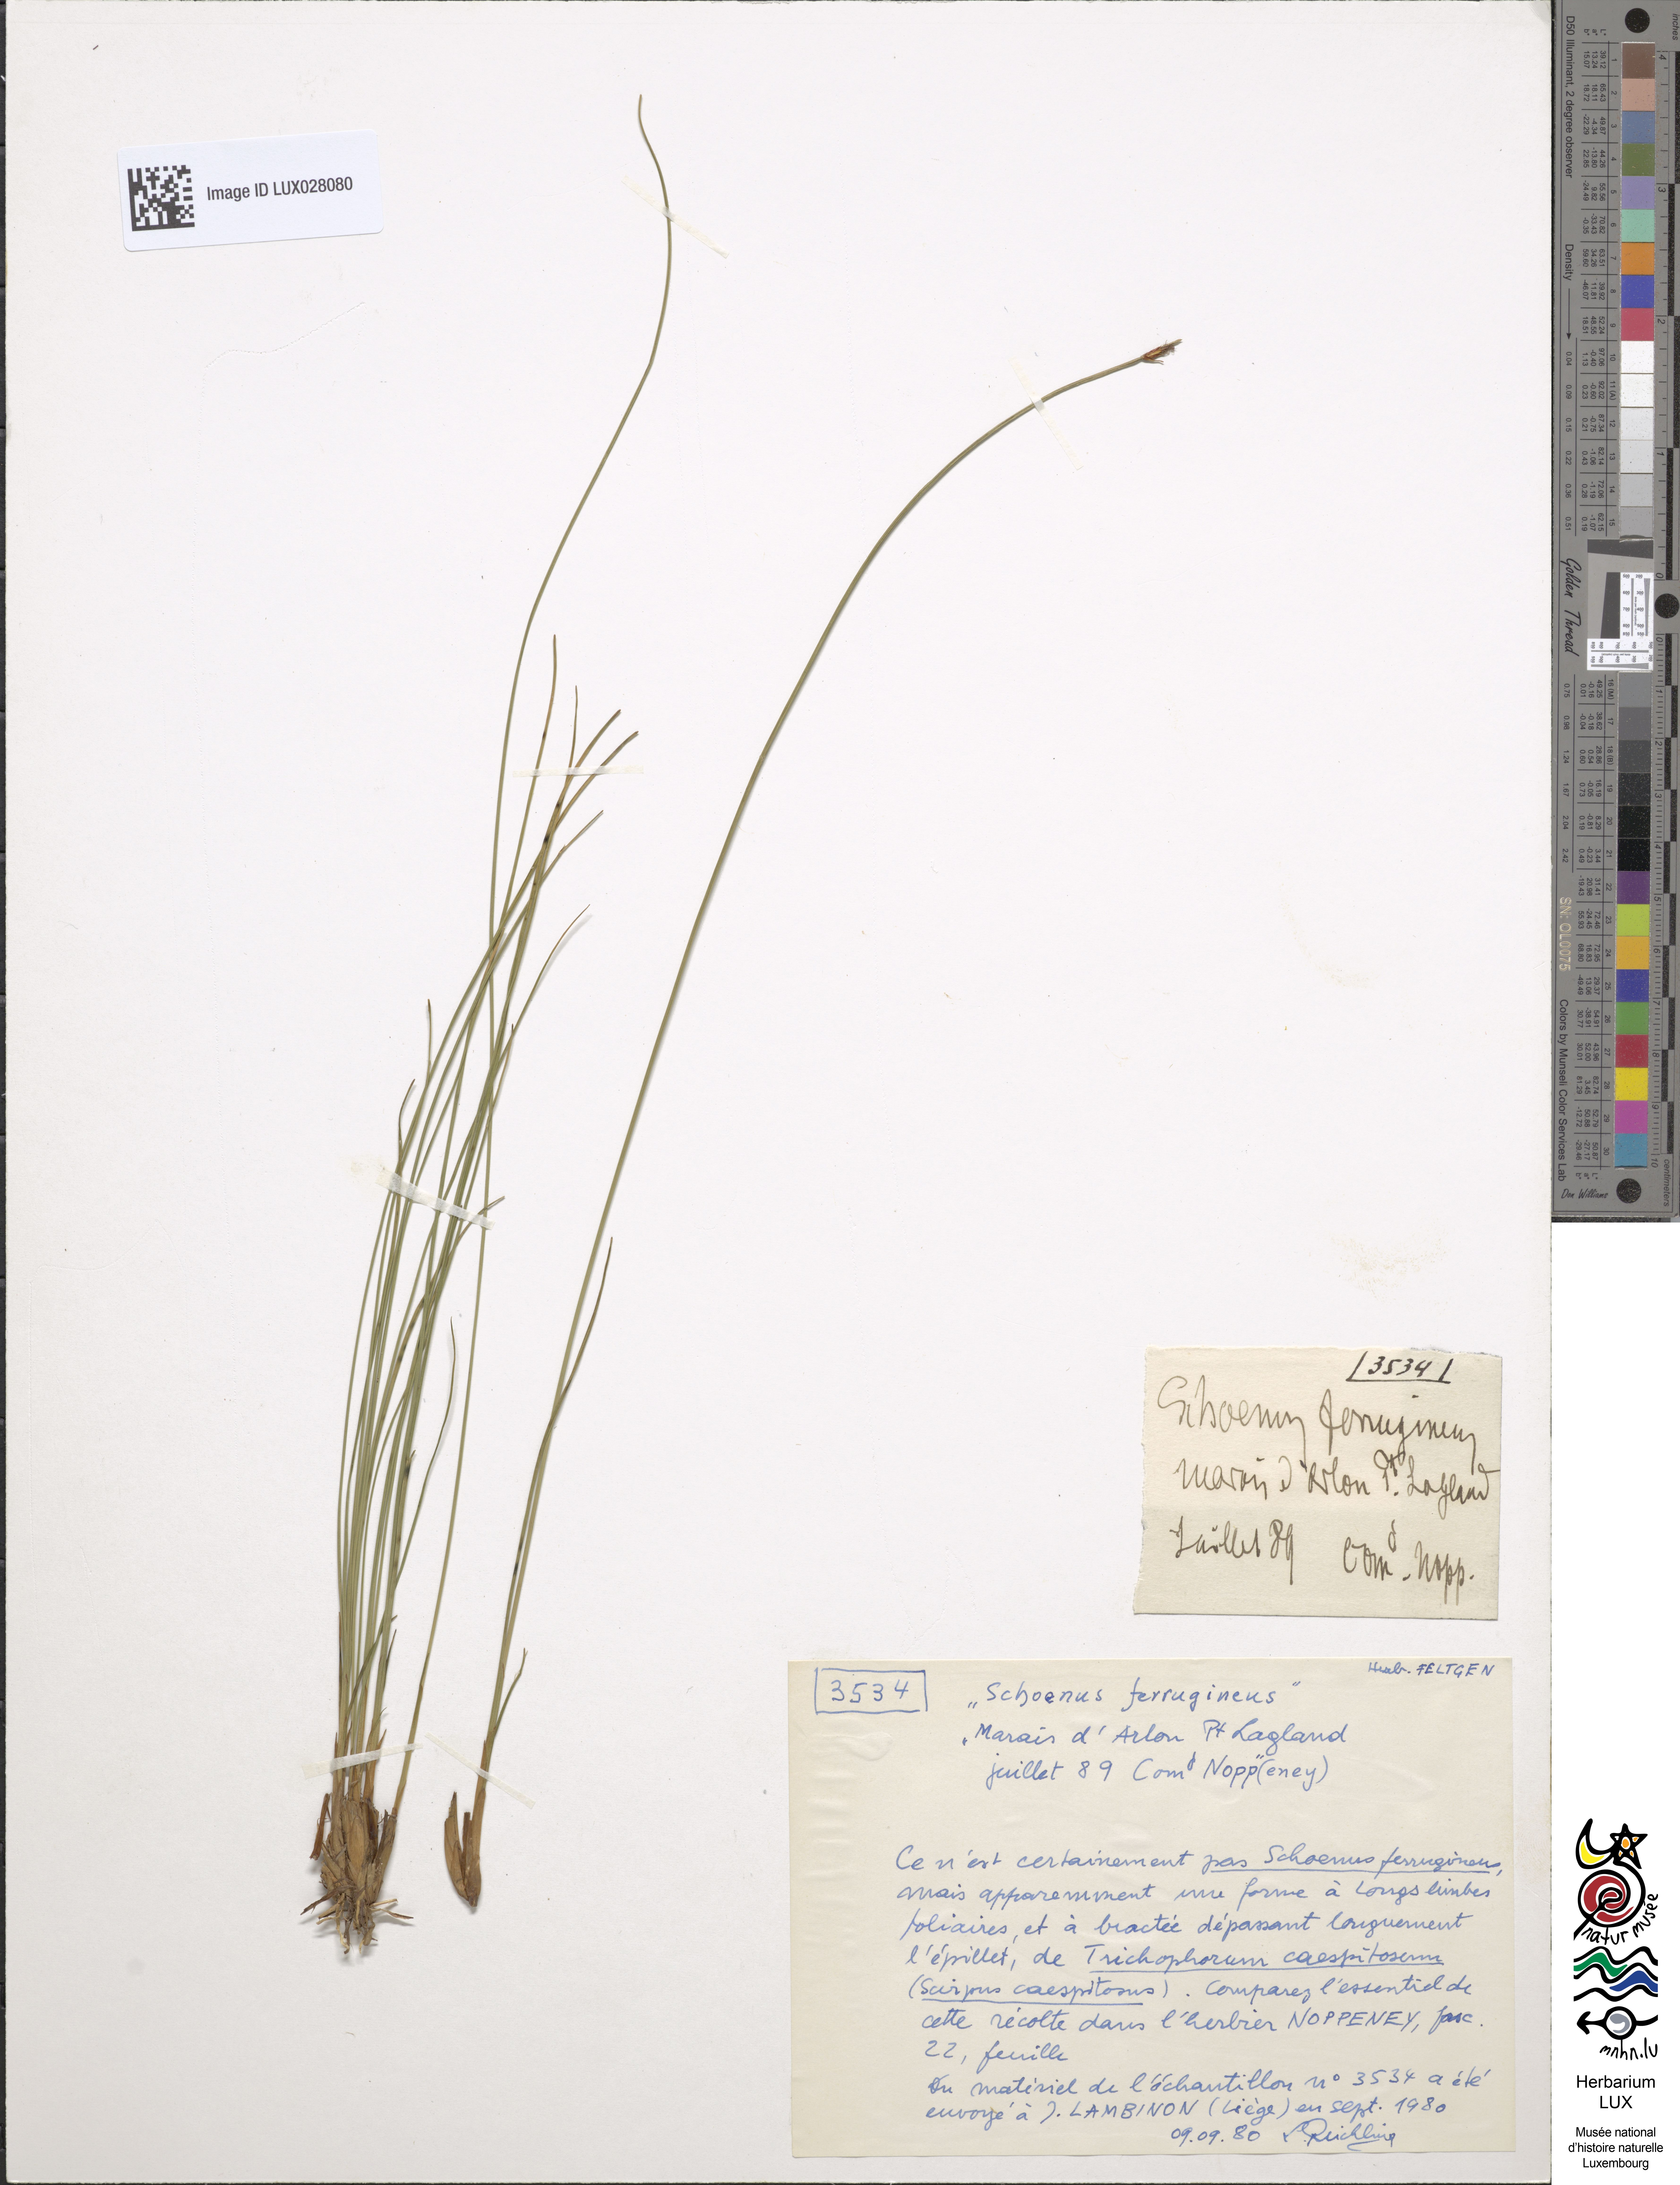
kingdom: Plantae
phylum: Tracheophyta
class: Liliopsida
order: Poales
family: Cyperaceae
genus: Schoenus
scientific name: Schoenus ferrugineus
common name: Brown bog-rush
